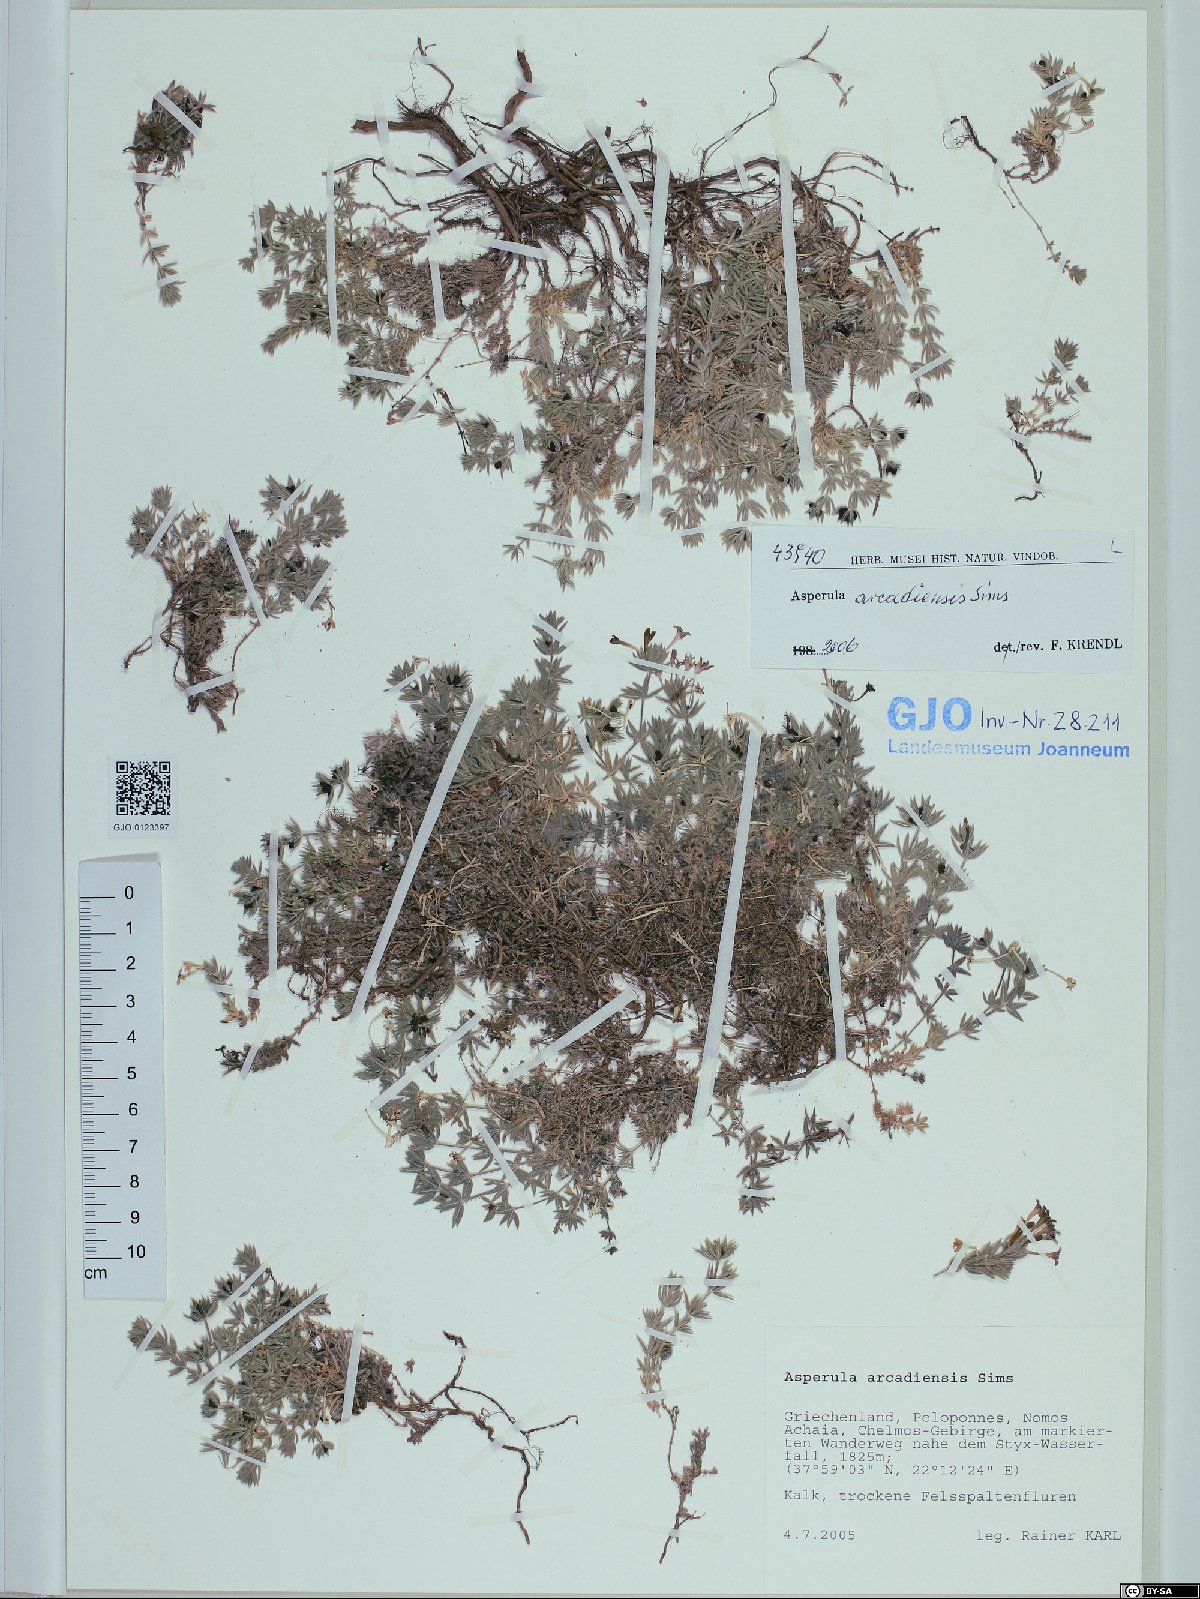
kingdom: Plantae
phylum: Tracheophyta
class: Magnoliopsida
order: Gentianales
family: Rubiaceae
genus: Hexaphylla
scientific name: Hexaphylla arcadiensis
